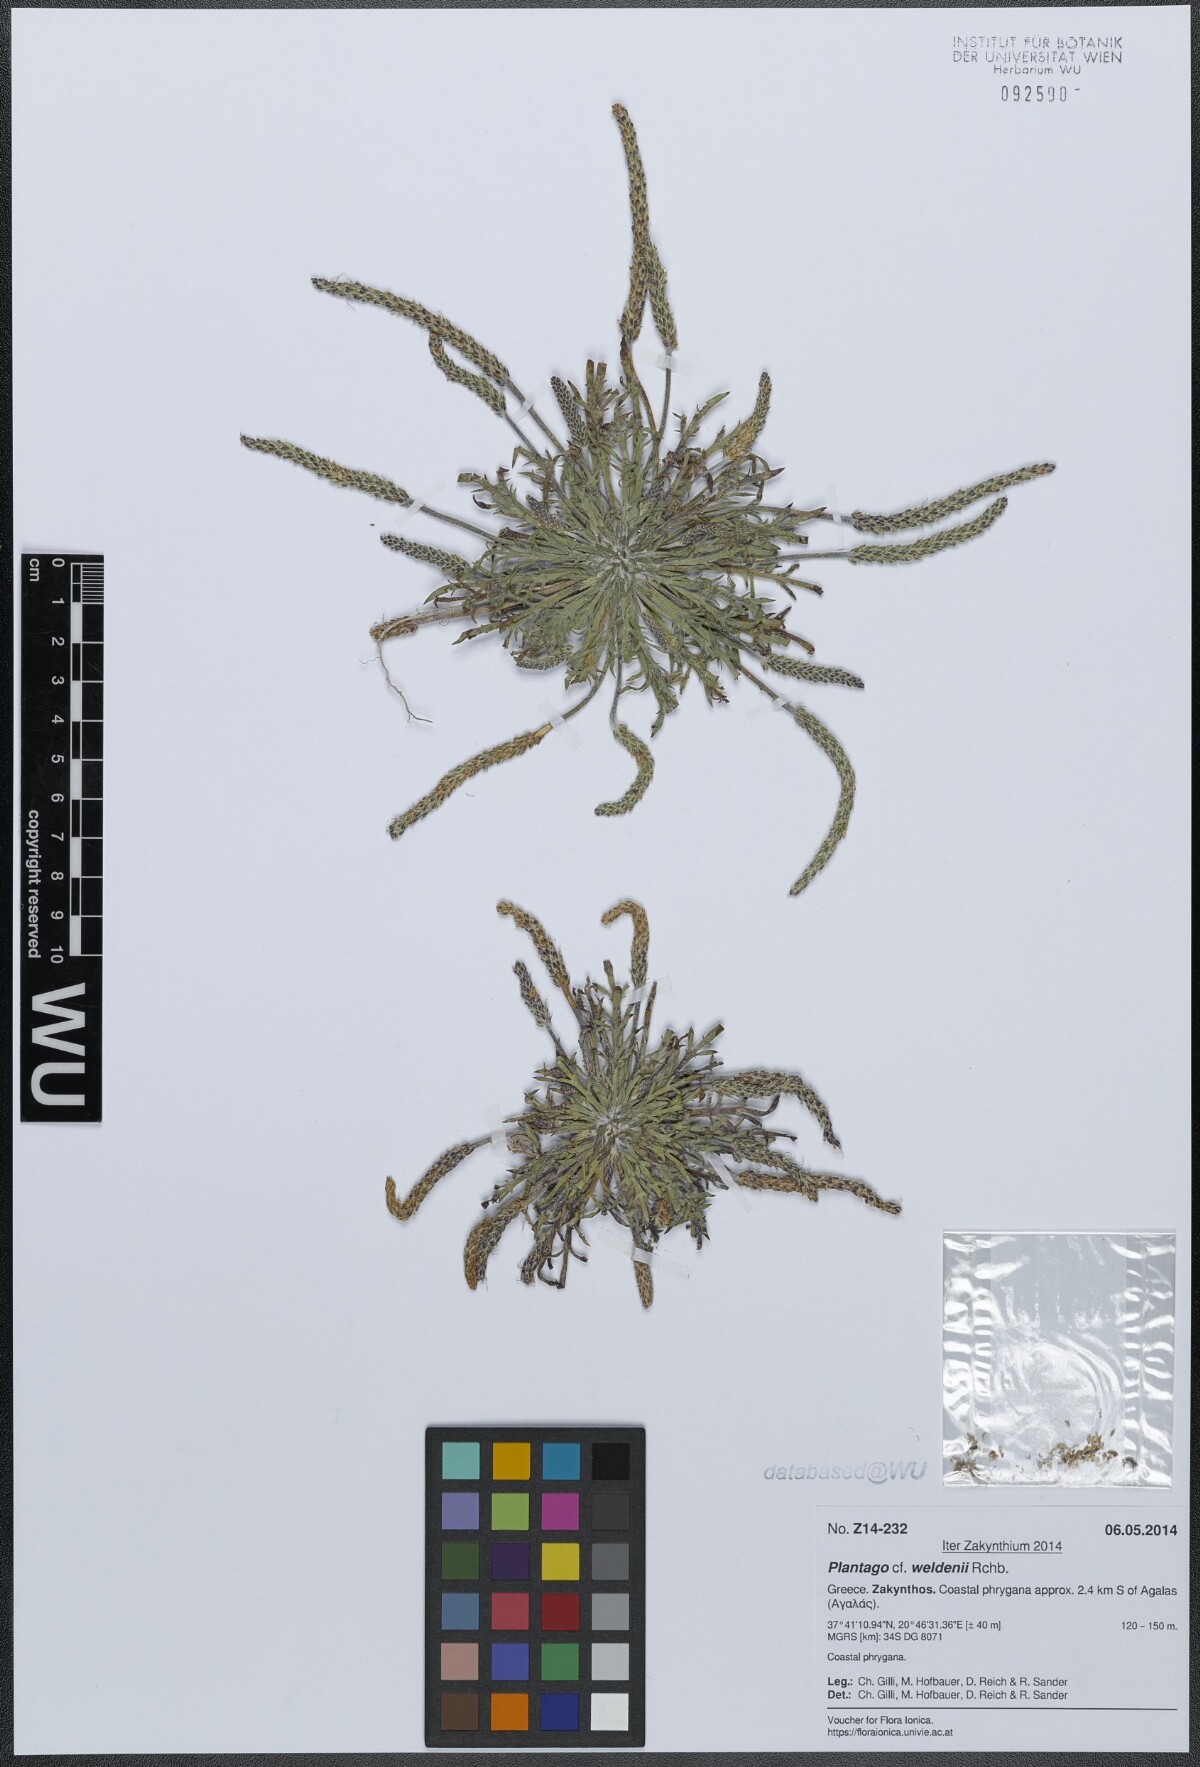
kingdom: Plantae
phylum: Tracheophyta
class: Magnoliopsida
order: Lamiales
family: Plantaginaceae
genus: Plantago
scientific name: Plantago weldenii
